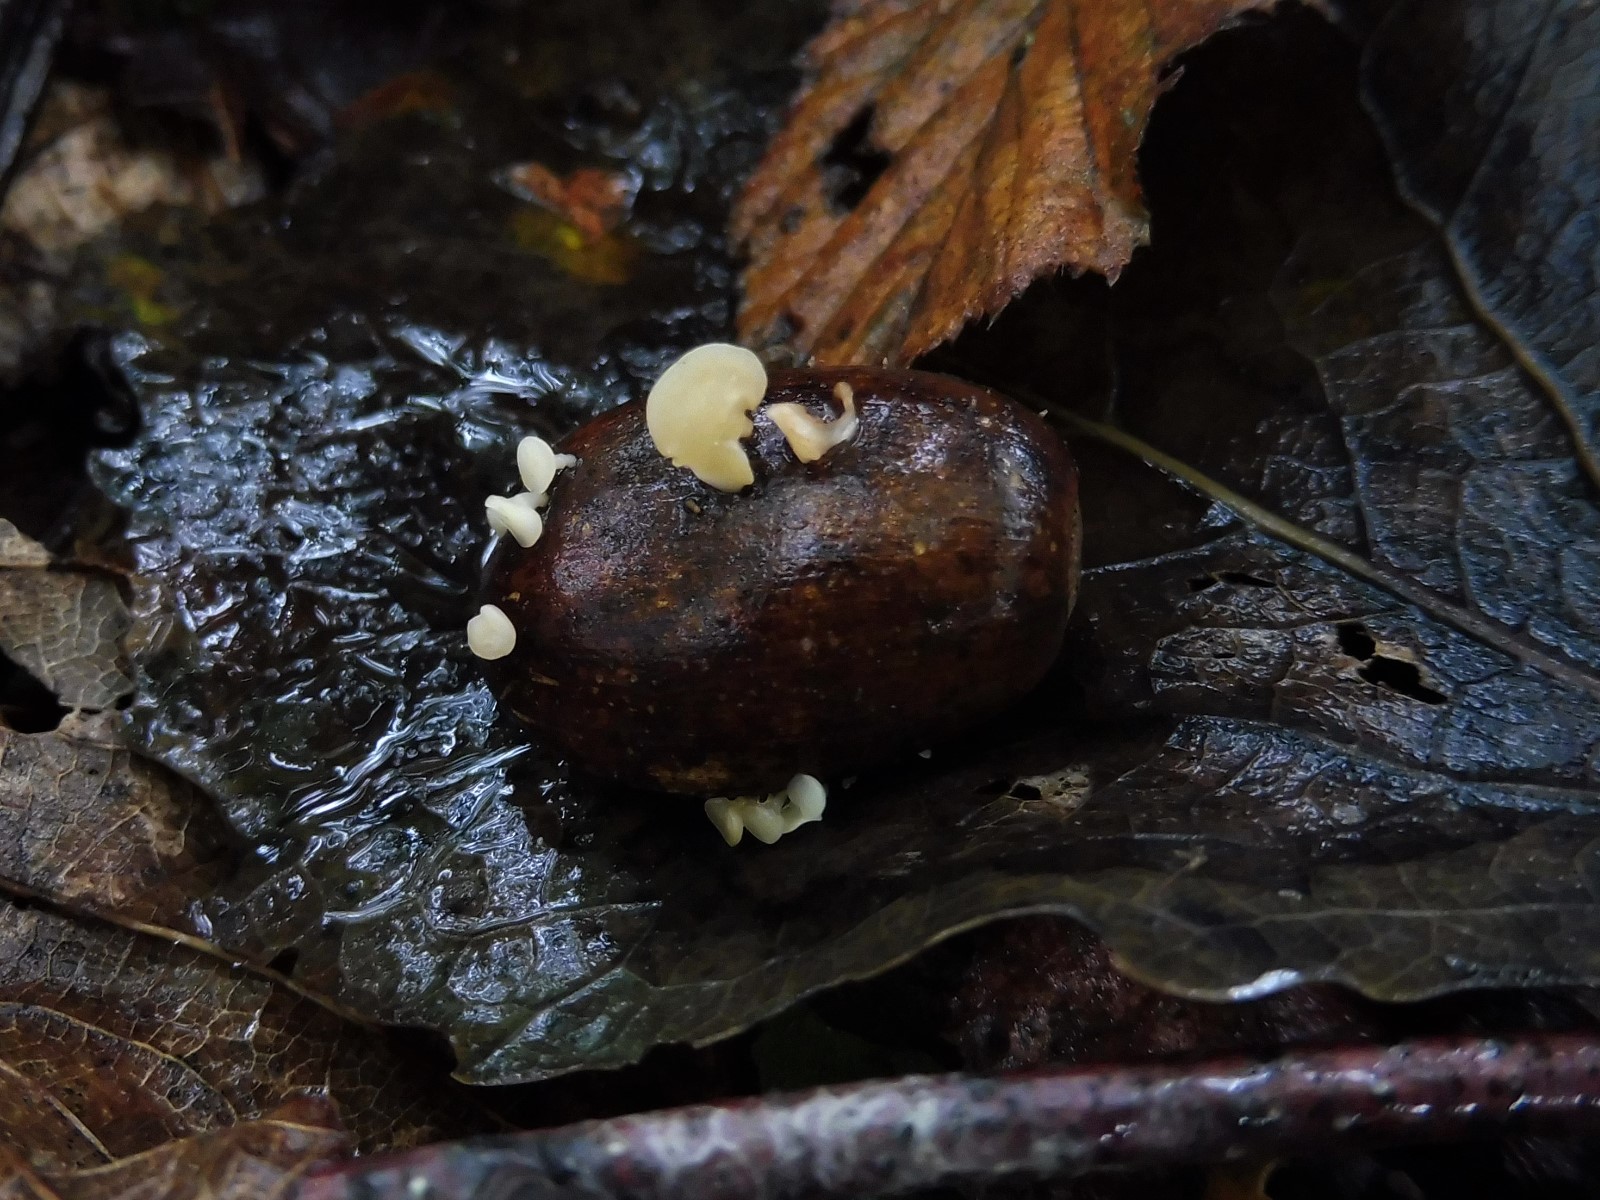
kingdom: Fungi
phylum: Ascomycota
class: Leotiomycetes
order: Helotiales
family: Helotiaceae
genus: Hymenoscyphus
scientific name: Hymenoscyphus fructigenus
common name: frugt-stilkskive
